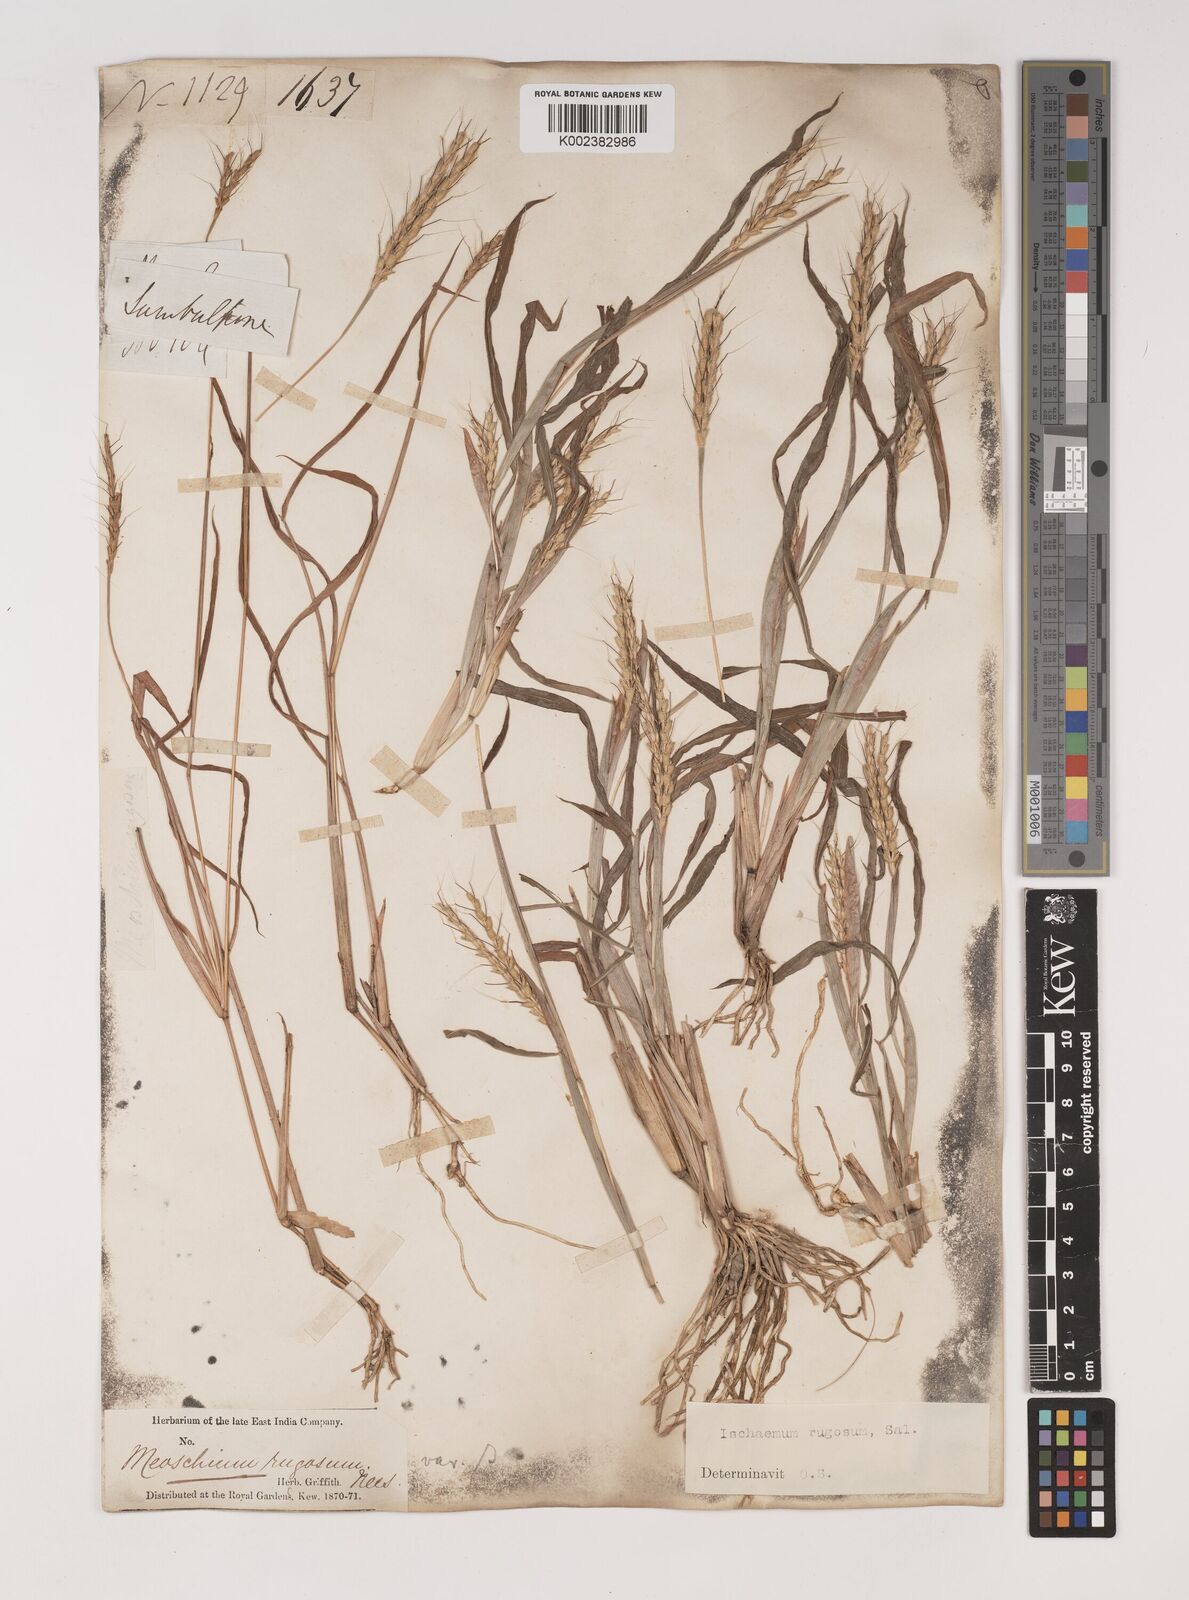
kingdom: Plantae
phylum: Tracheophyta
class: Liliopsida
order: Poales
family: Poaceae
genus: Ischaemum
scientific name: Ischaemum rugosum
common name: Saramatta grass
